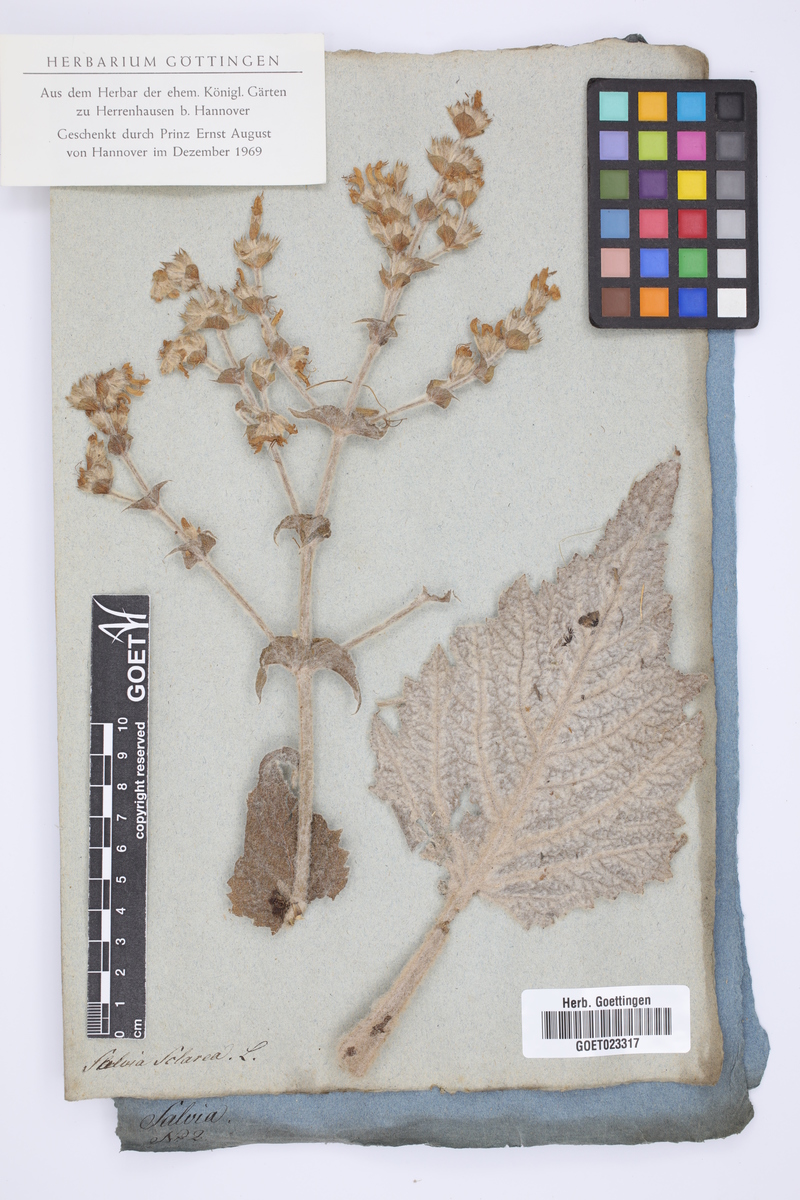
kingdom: Plantae
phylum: Tracheophyta
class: Magnoliopsida
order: Lamiales
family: Lamiaceae
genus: Salvia
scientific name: Salvia sclarea
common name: Clary
